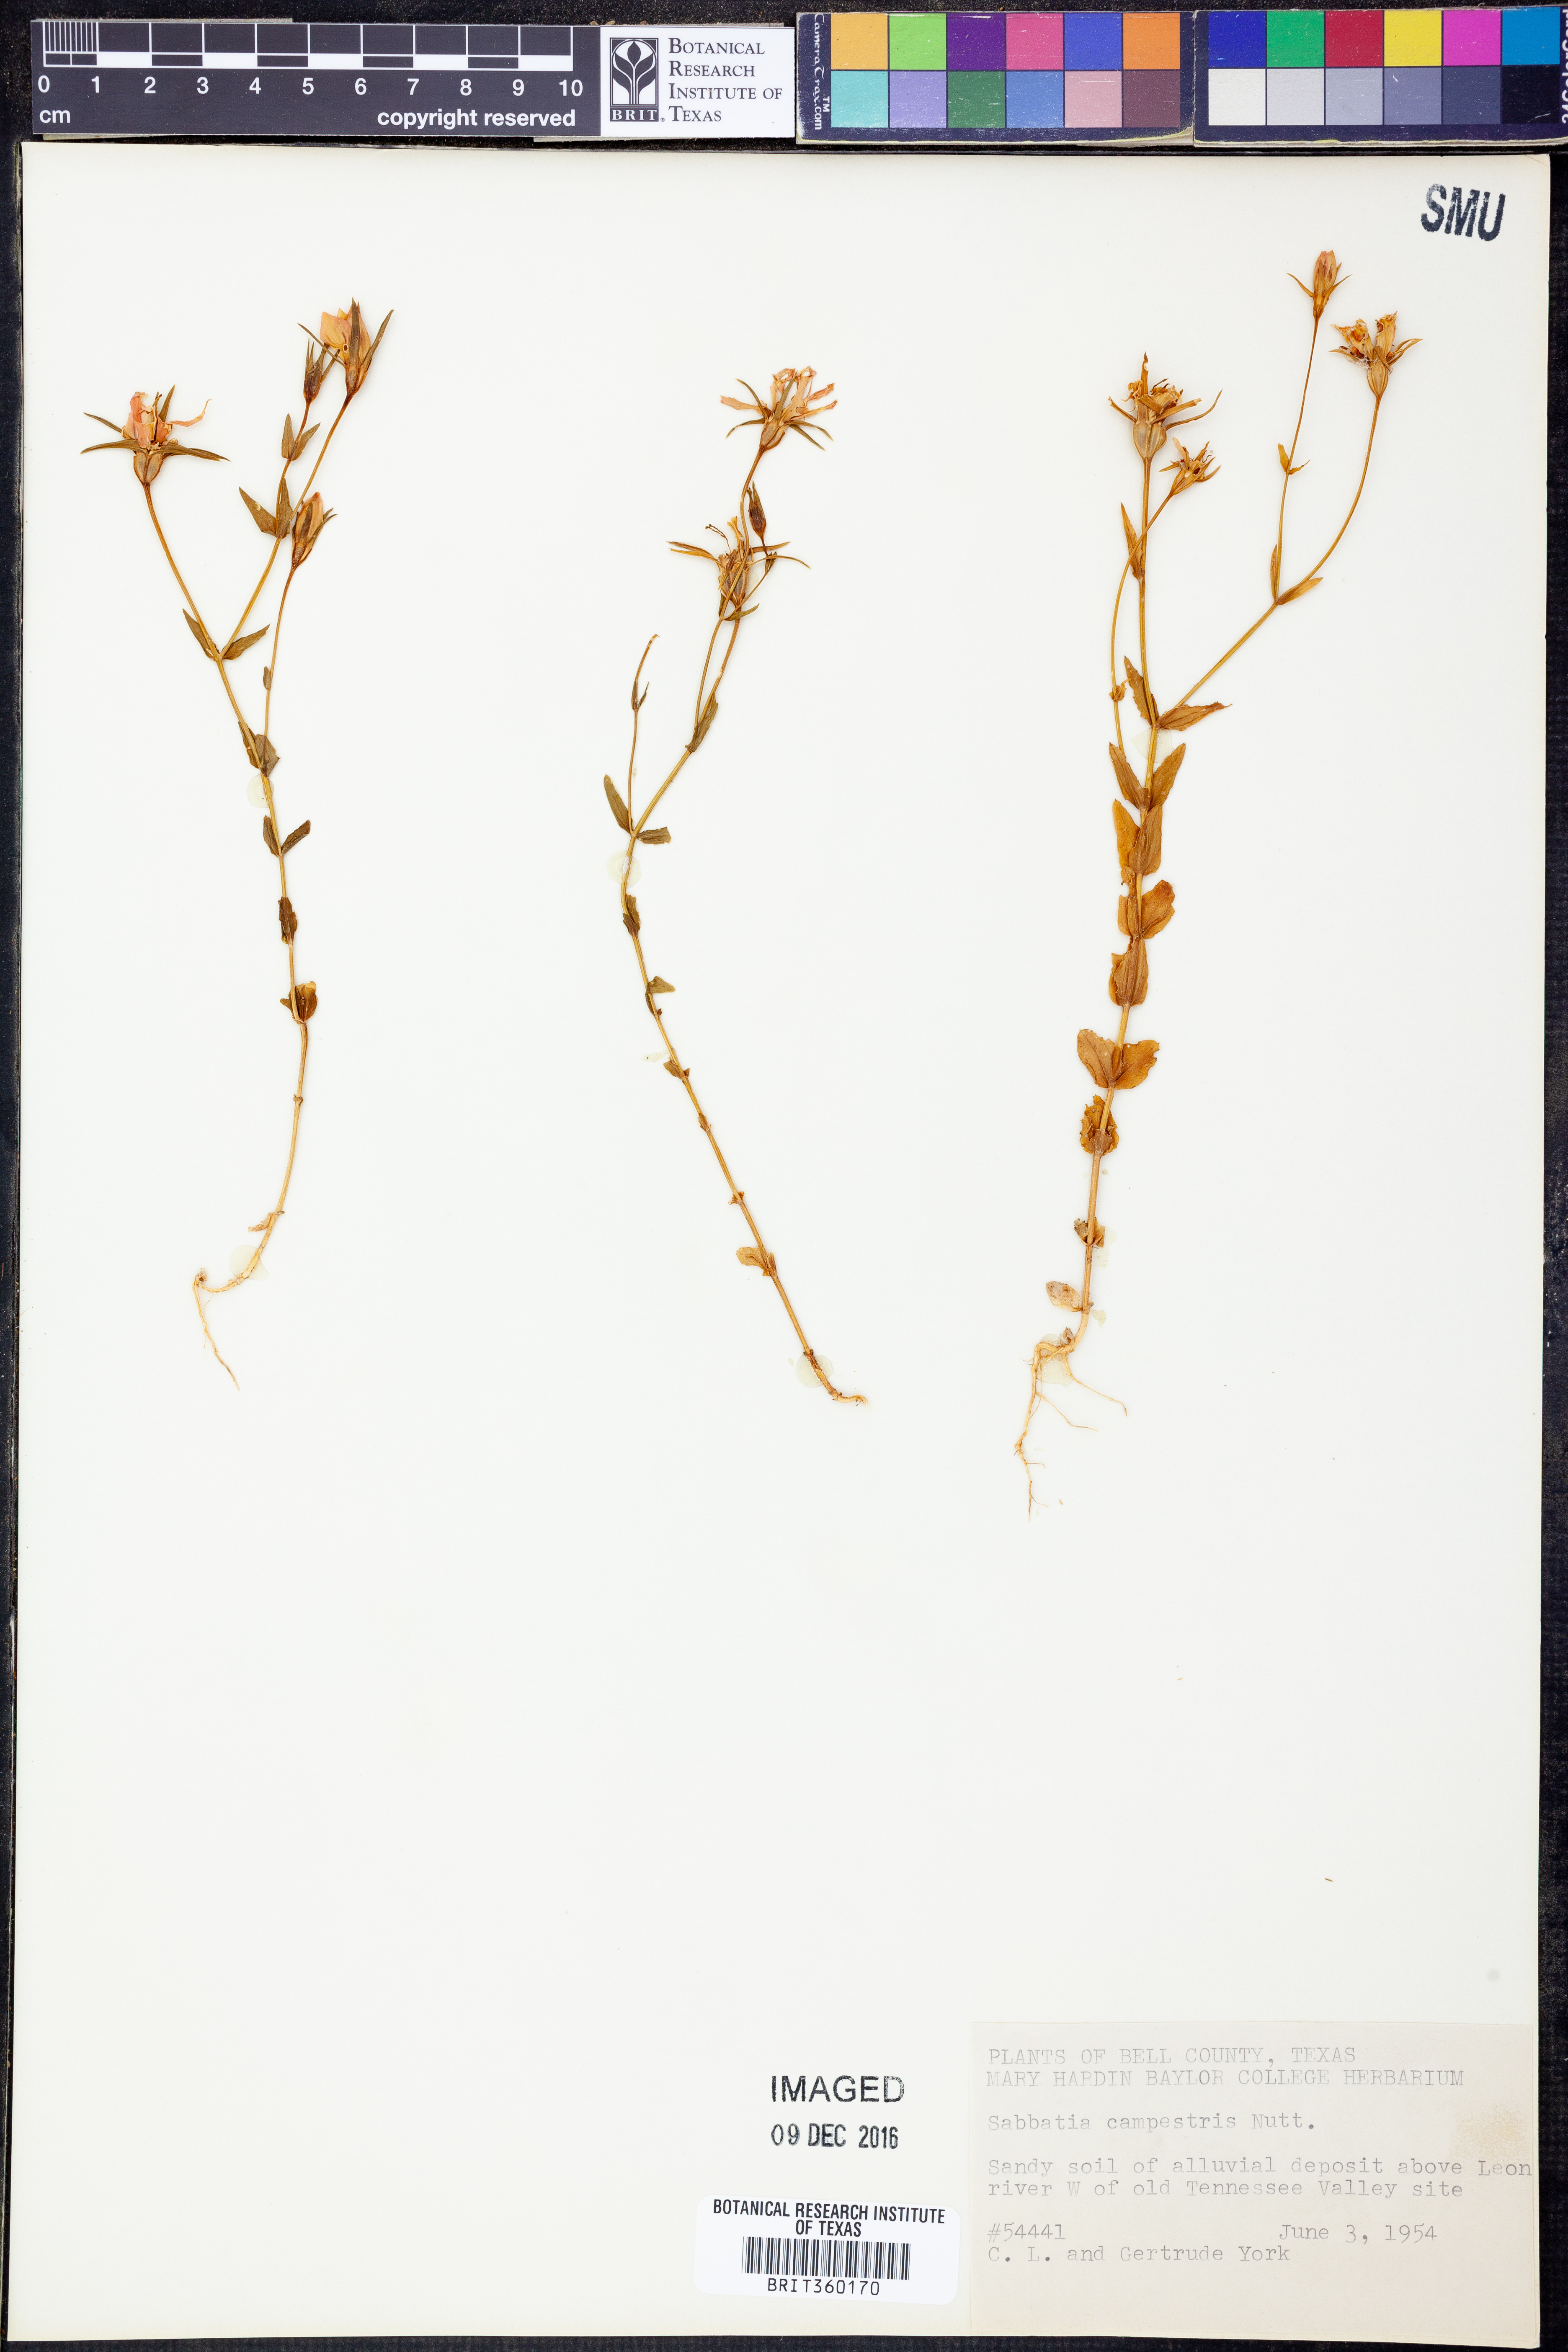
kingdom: Plantae
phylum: Tracheophyta
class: Magnoliopsida
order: Gentianales
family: Gentianaceae
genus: Sabatia
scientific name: Sabatia campestris
